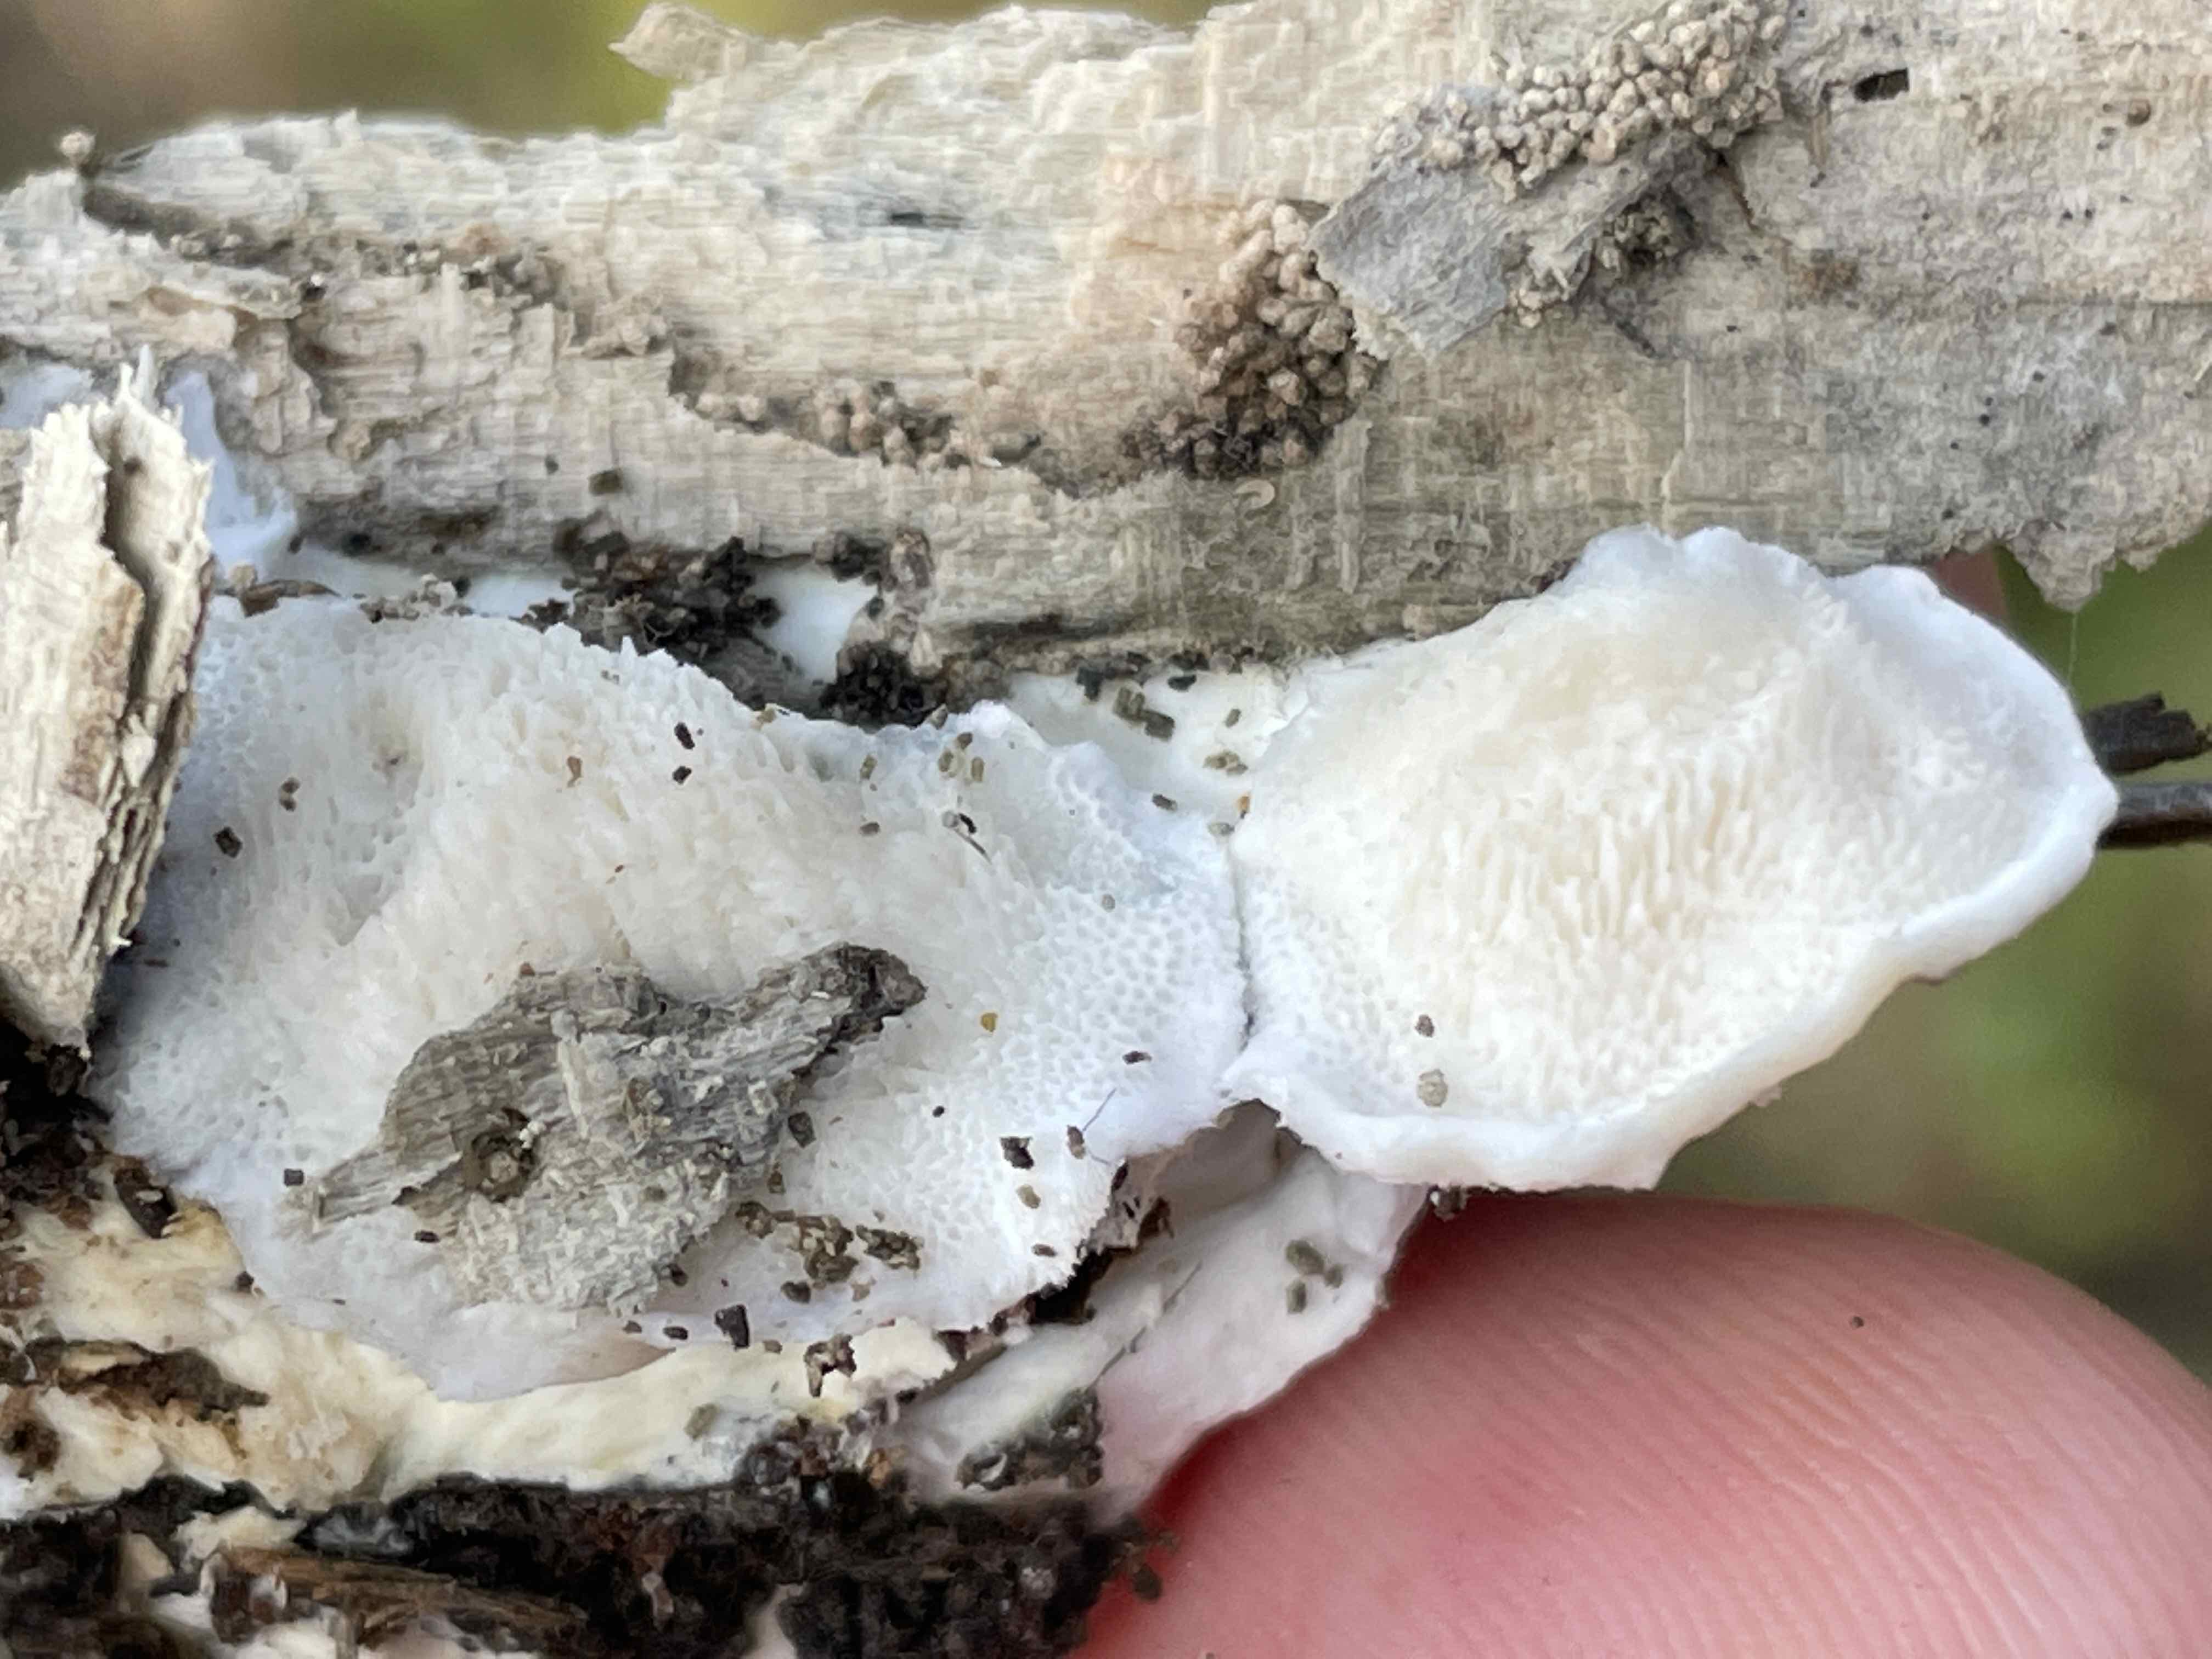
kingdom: Fungi
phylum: Basidiomycota
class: Agaricomycetes
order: Polyporales
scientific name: Polyporales
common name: poresvampordenen
